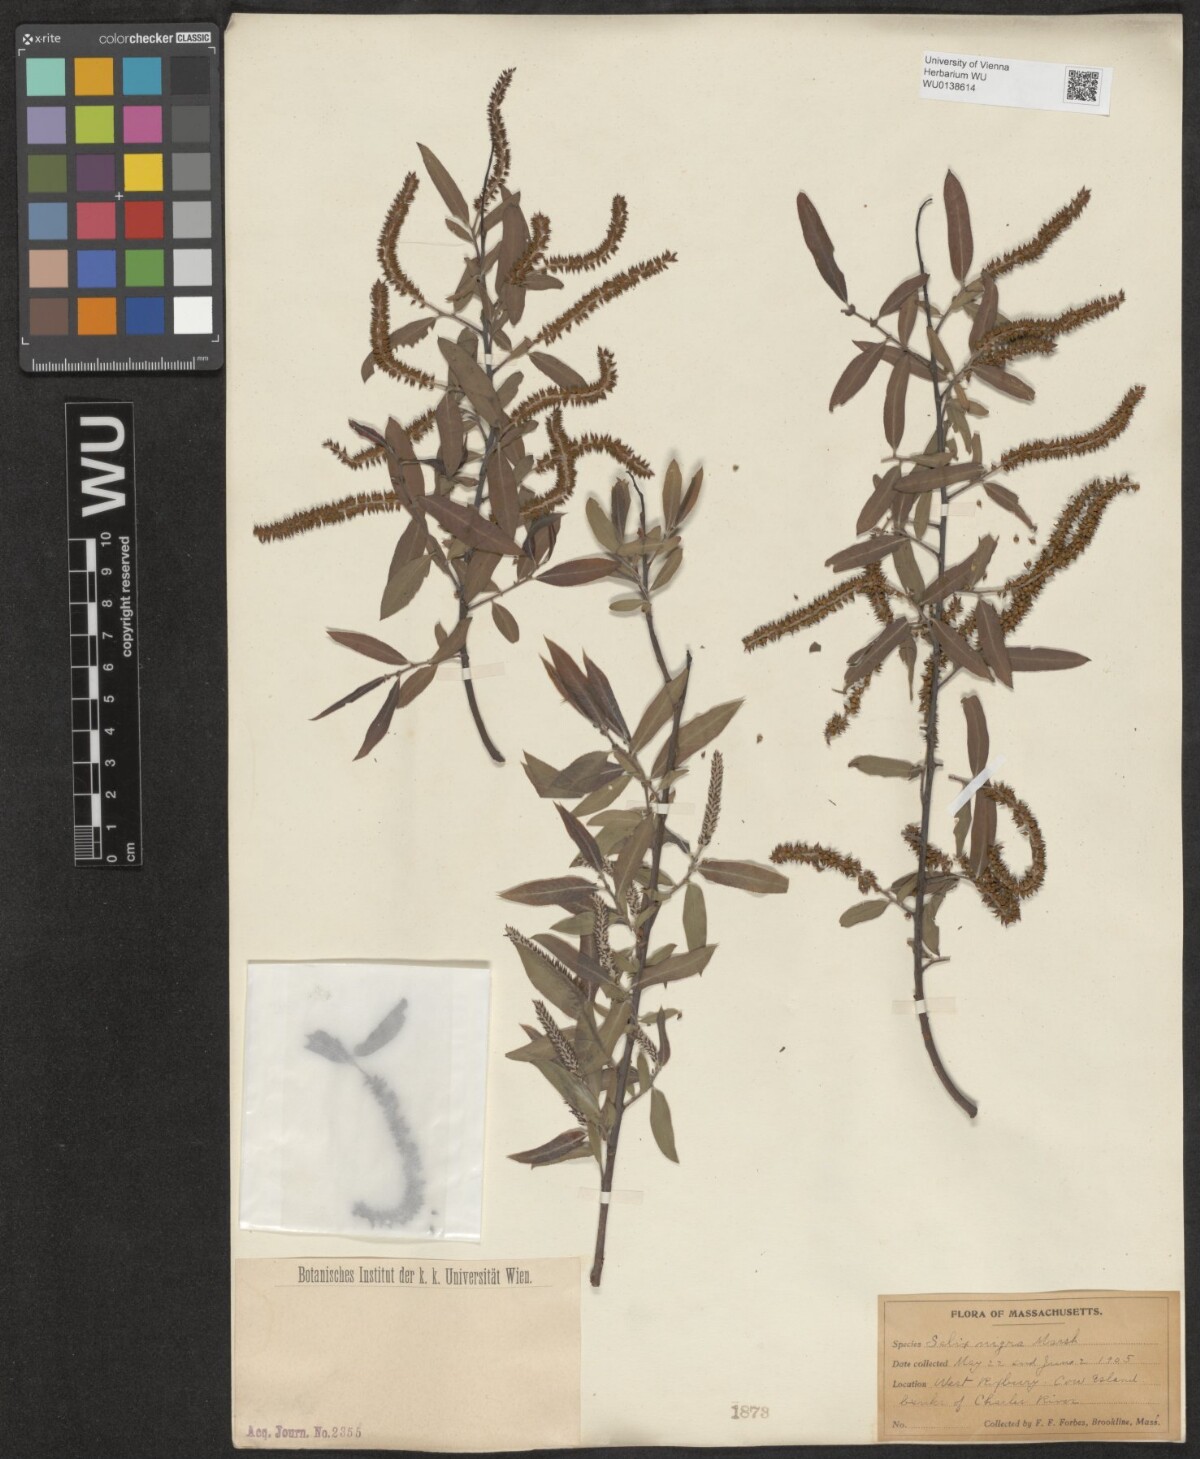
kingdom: Plantae
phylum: Tracheophyta
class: Magnoliopsida
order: Malpighiales
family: Salicaceae
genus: Salix
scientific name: Salix nigra
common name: Black willow
